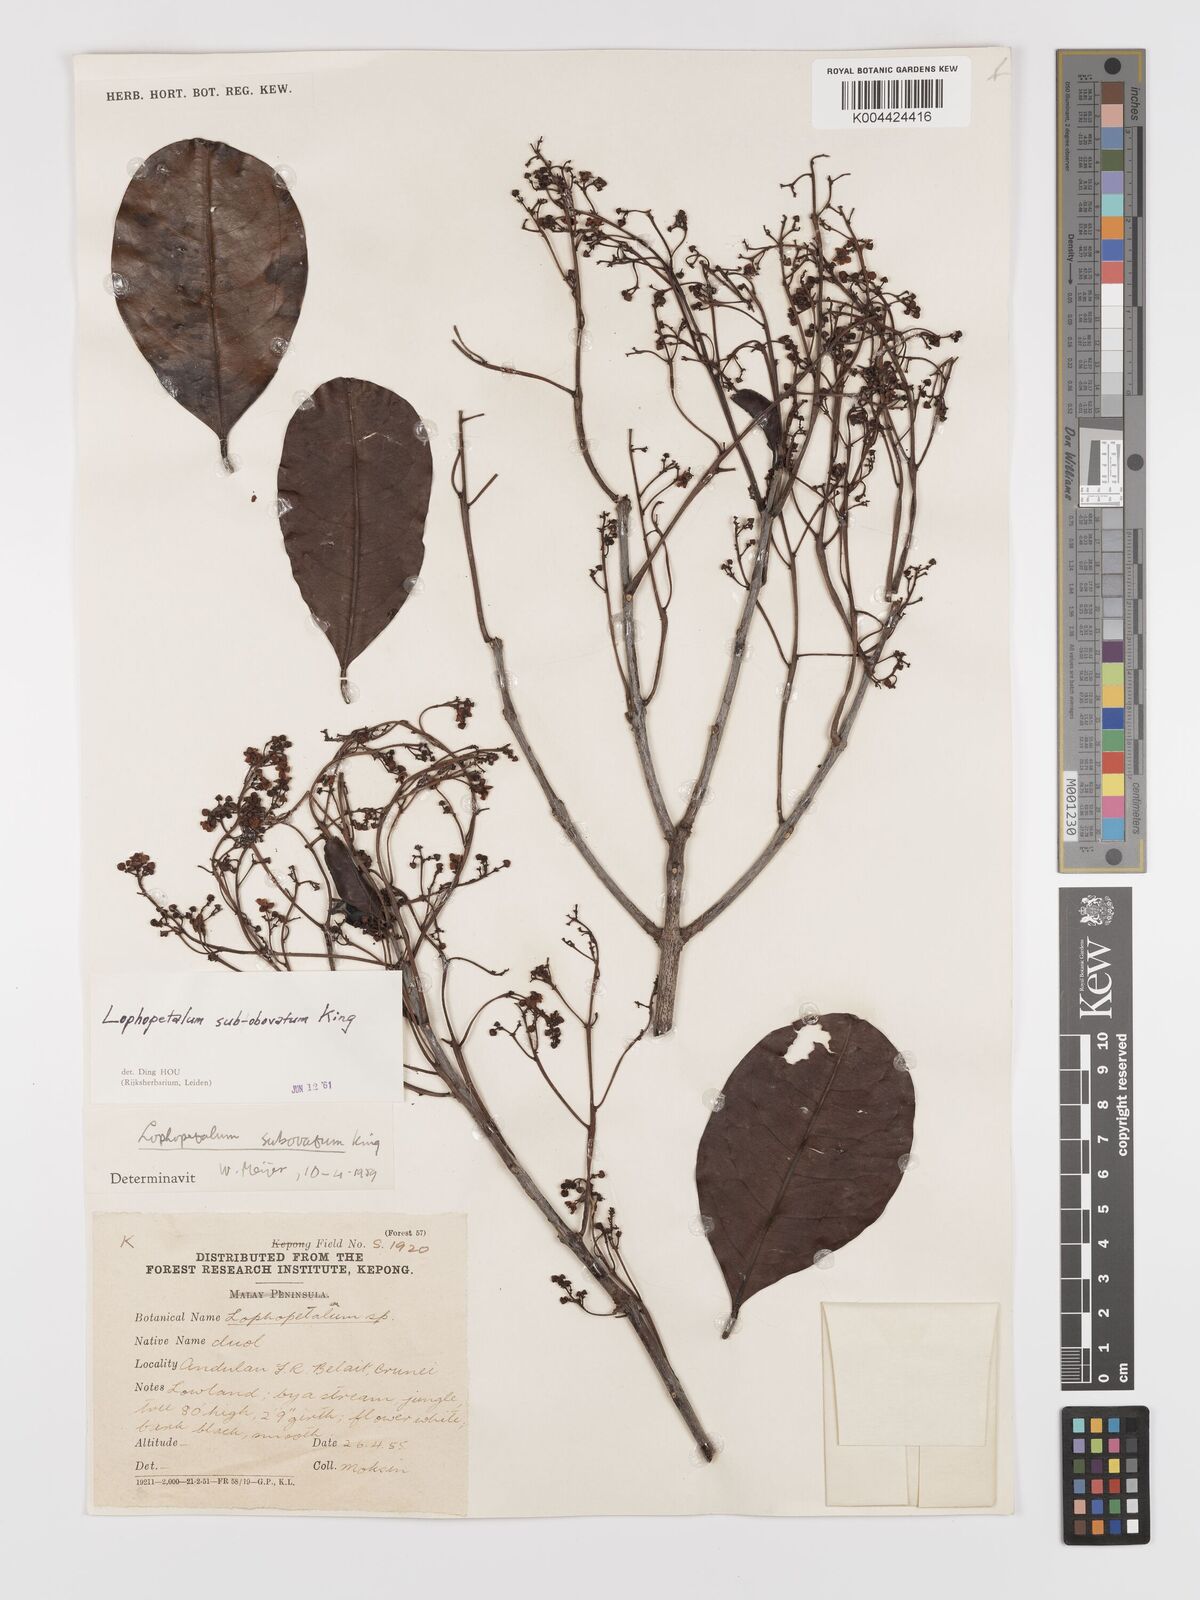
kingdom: Plantae
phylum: Tracheophyta
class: Magnoliopsida
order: Celastrales
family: Celastraceae
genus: Lophopetalum
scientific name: Lophopetalum
